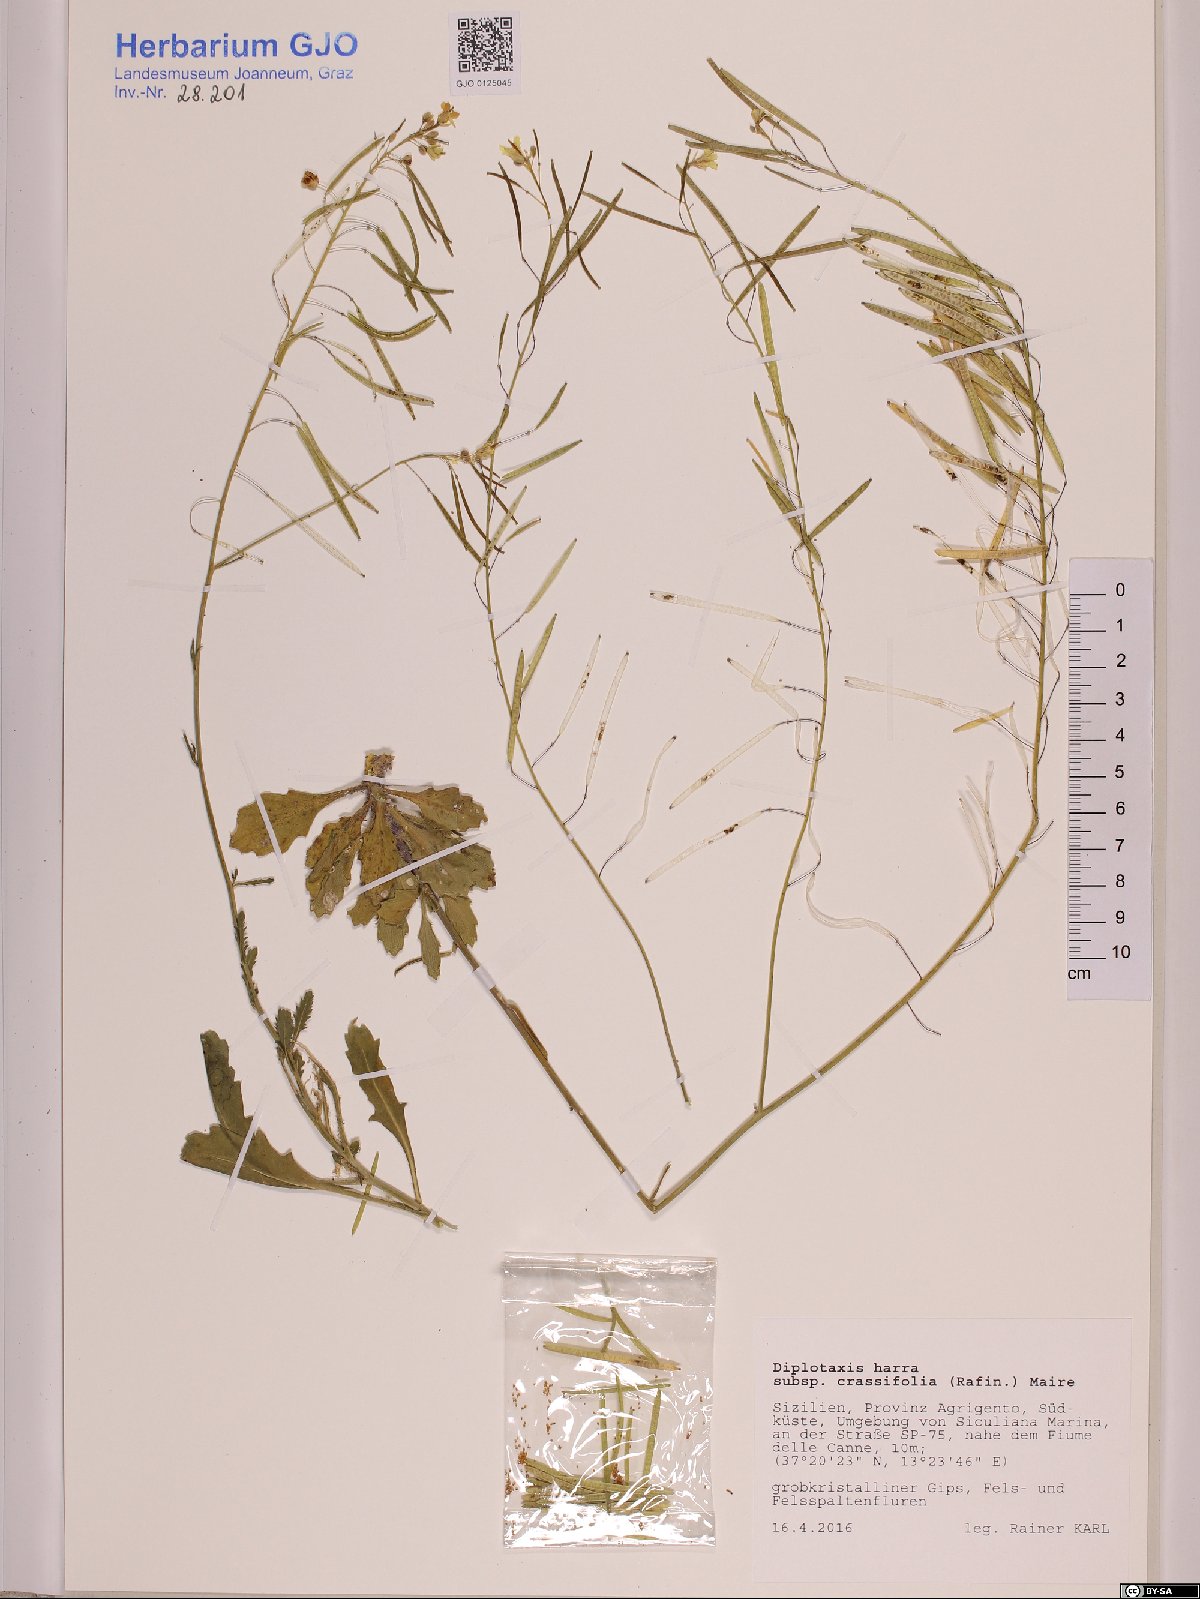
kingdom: Plantae
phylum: Tracheophyta
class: Magnoliopsida
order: Brassicales
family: Brassicaceae
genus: Diplotaxis
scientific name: Diplotaxis harra
